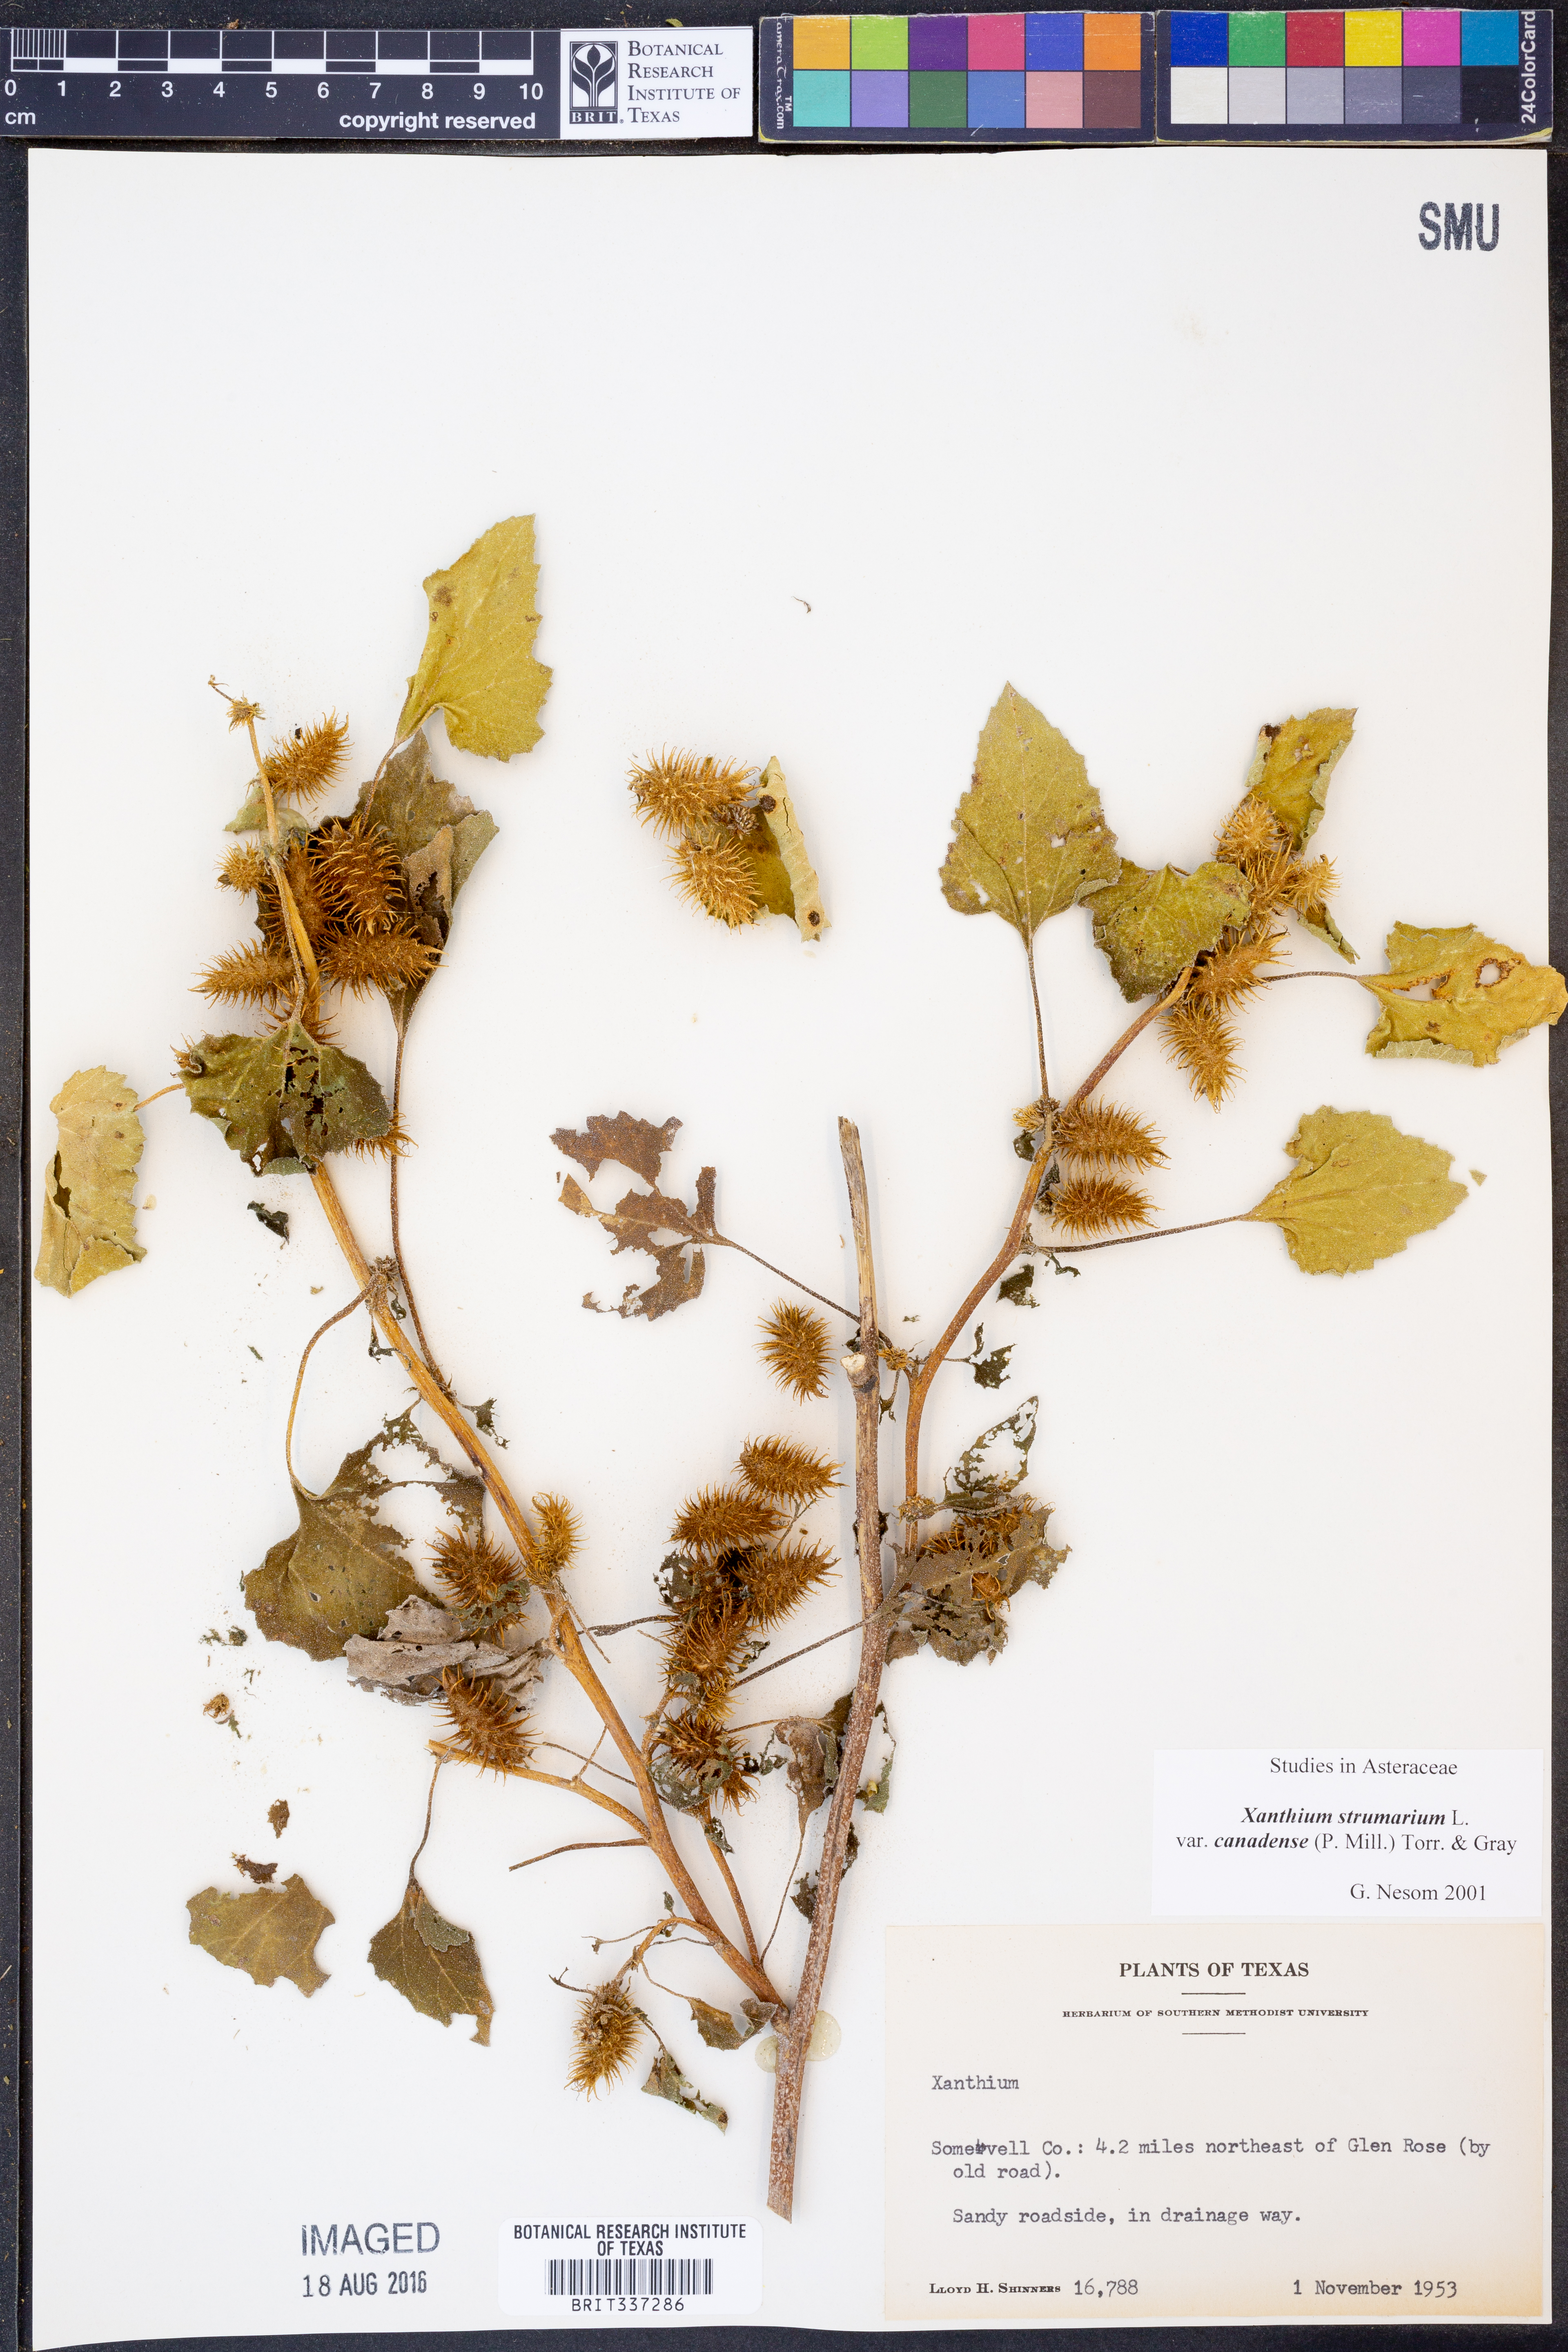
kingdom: Plantae
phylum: Tracheophyta
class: Magnoliopsida
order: Asterales
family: Asteraceae
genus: Xanthium
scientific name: Xanthium orientale
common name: Californian burr
